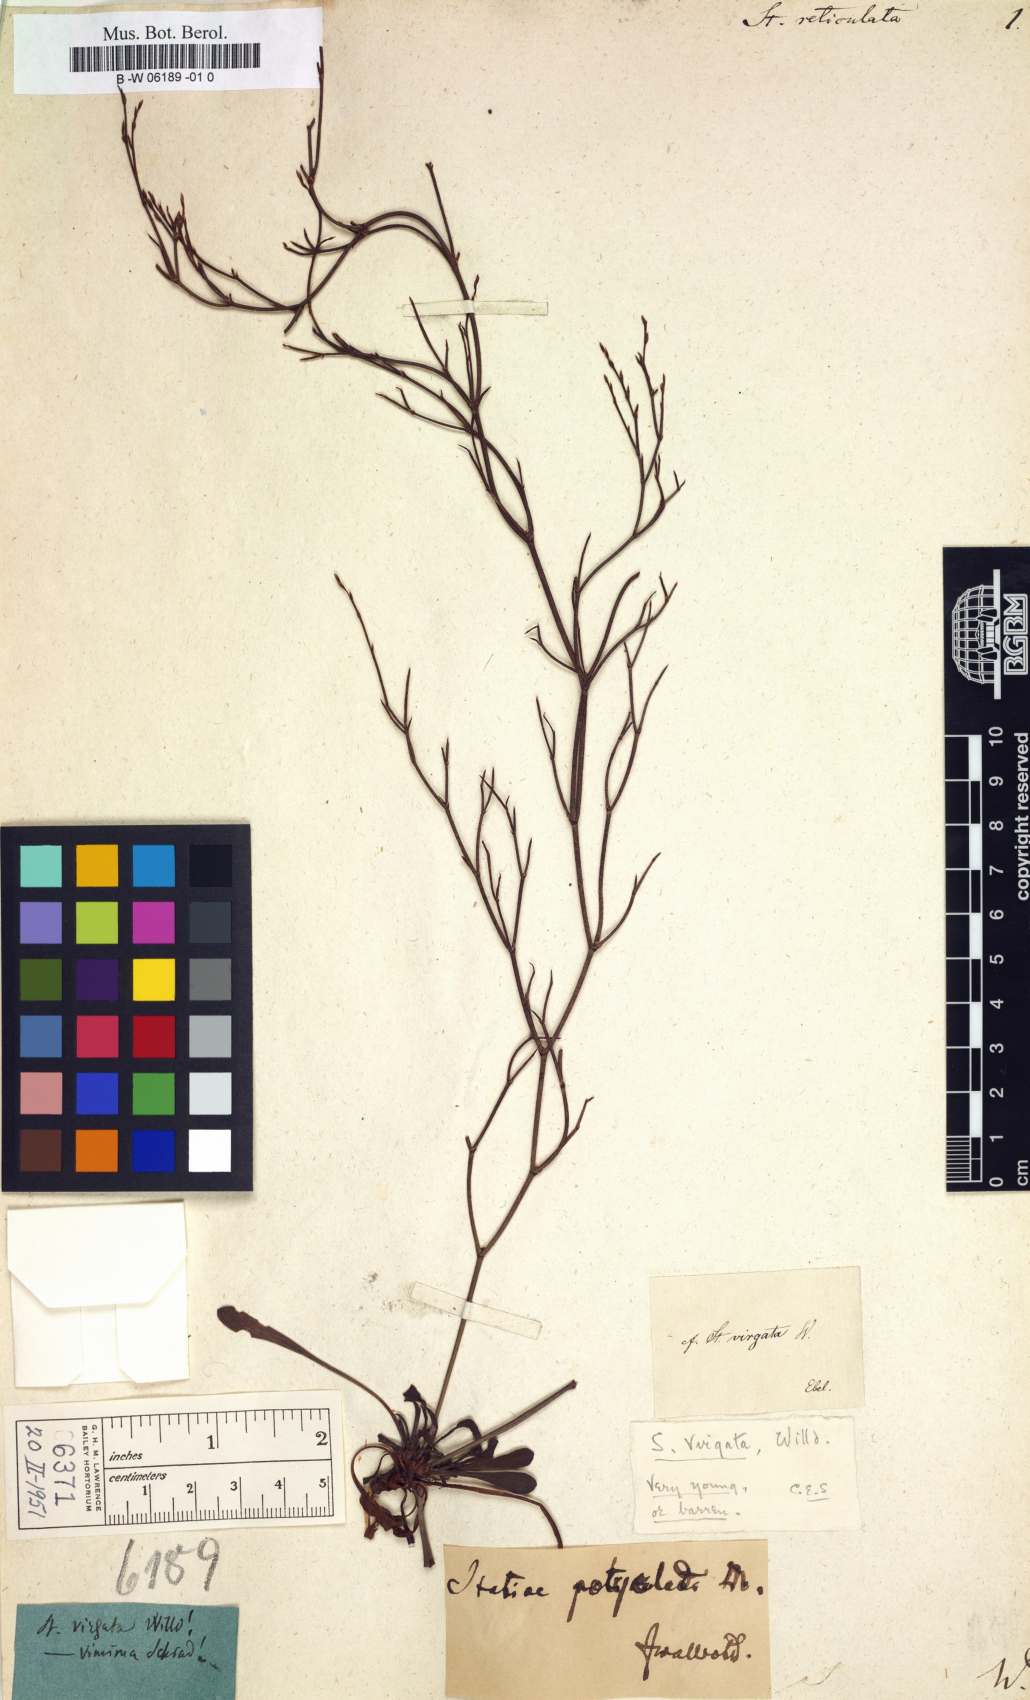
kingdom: Plantae
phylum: Tracheophyta
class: Magnoliopsida
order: Caryophyllales
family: Plumbaginaceae
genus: Limonium
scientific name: Limonium
